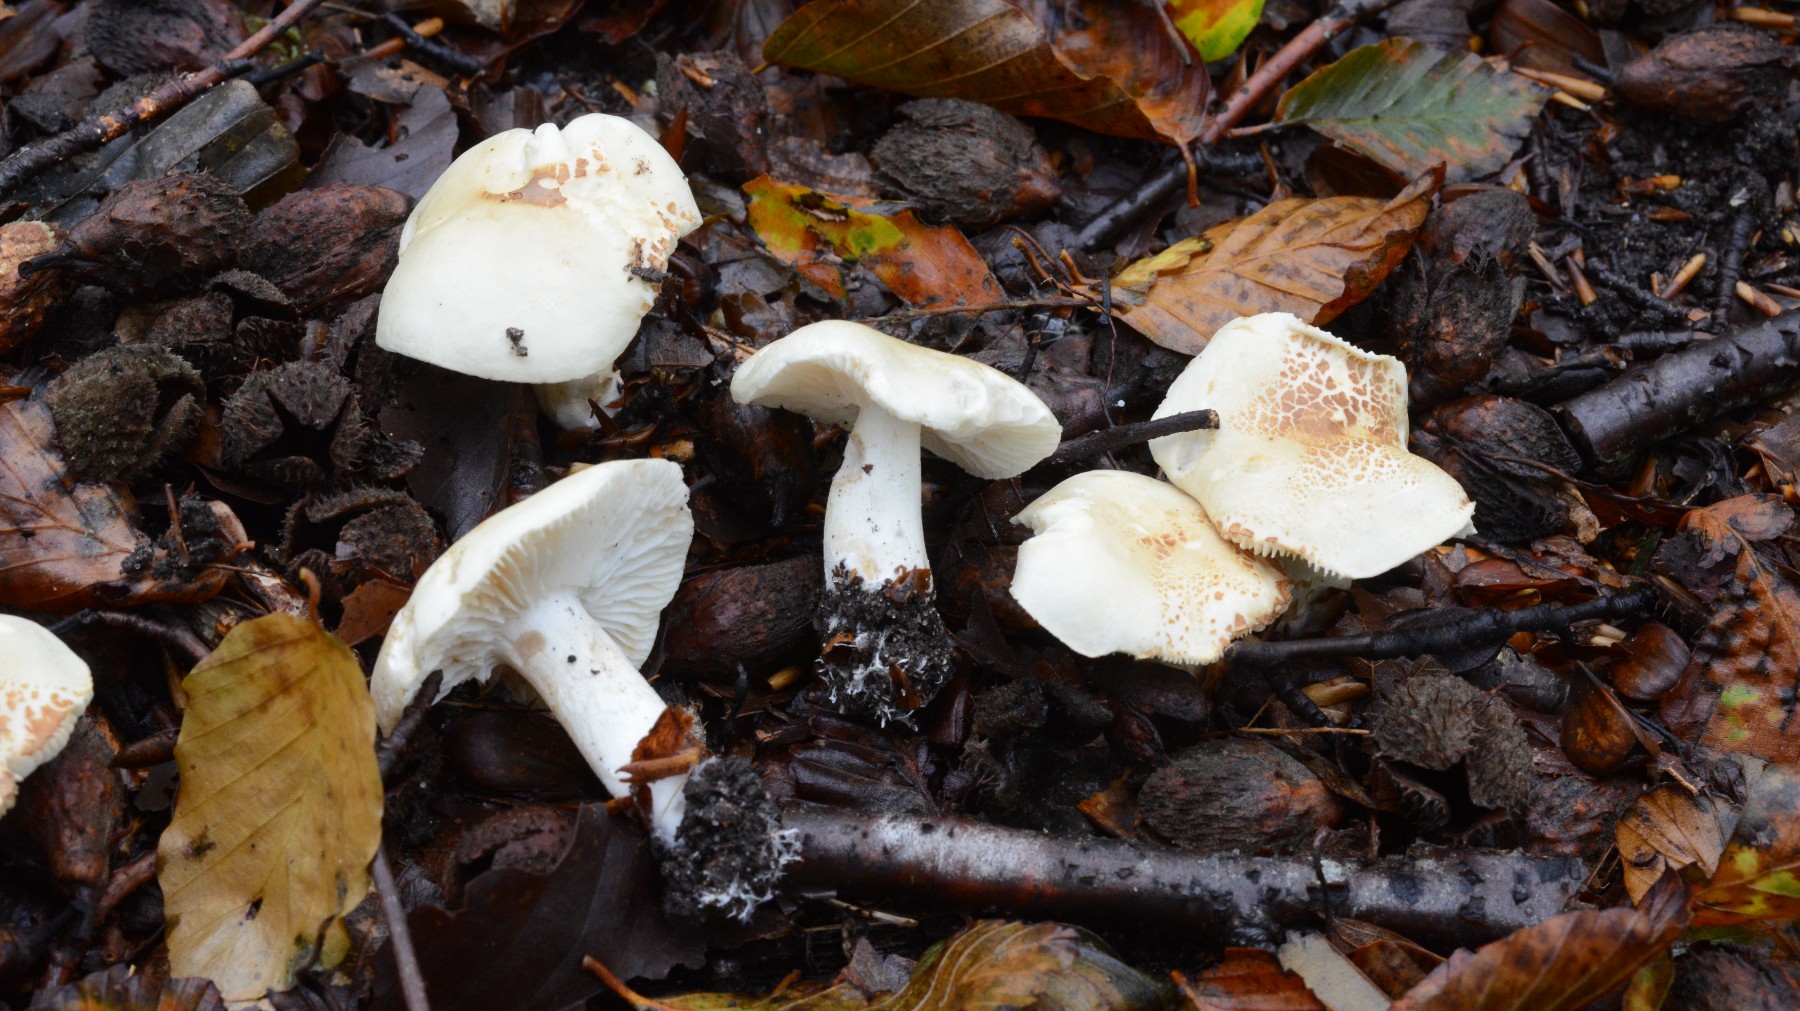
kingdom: Fungi
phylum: Basidiomycota
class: Agaricomycetes
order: Agaricales
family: Tricholomataceae
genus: Tricholoma
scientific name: Tricholoma lascivum
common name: stinkende ridderhat
